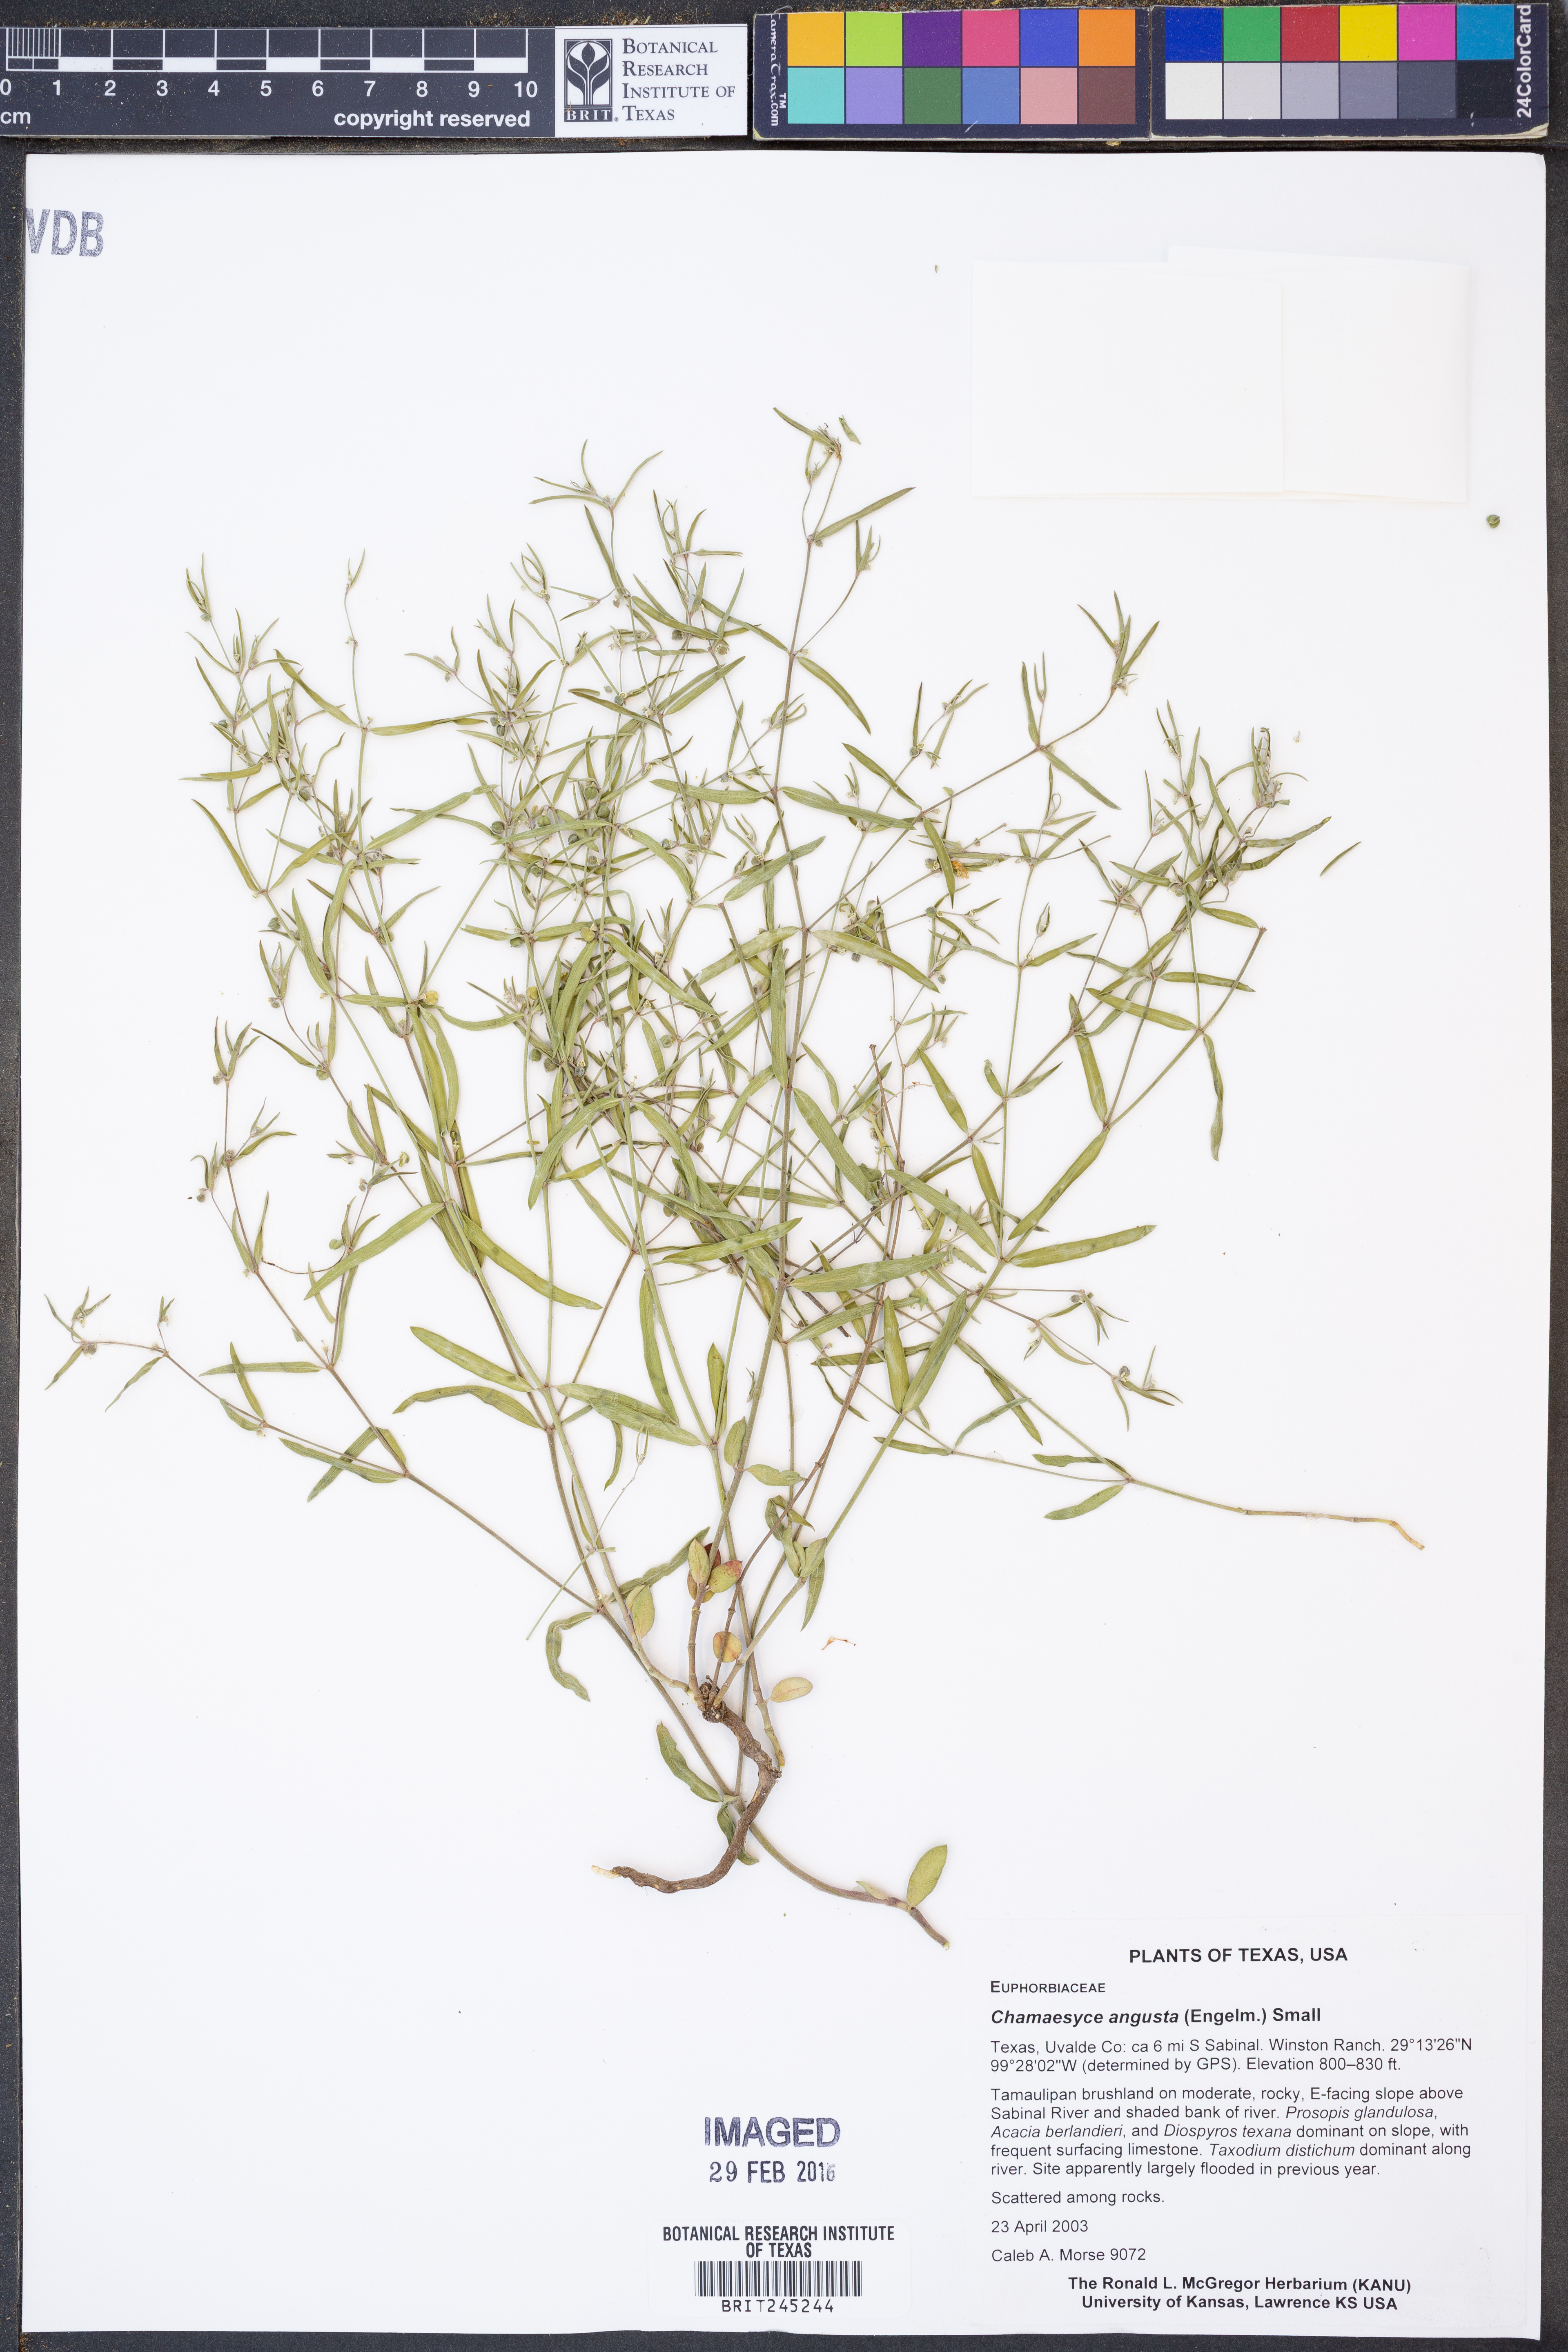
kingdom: Plantae
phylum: Tracheophyta
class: Magnoliopsida
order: Malpighiales
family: Euphorbiaceae
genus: Euphorbia
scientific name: Euphorbia angusta
